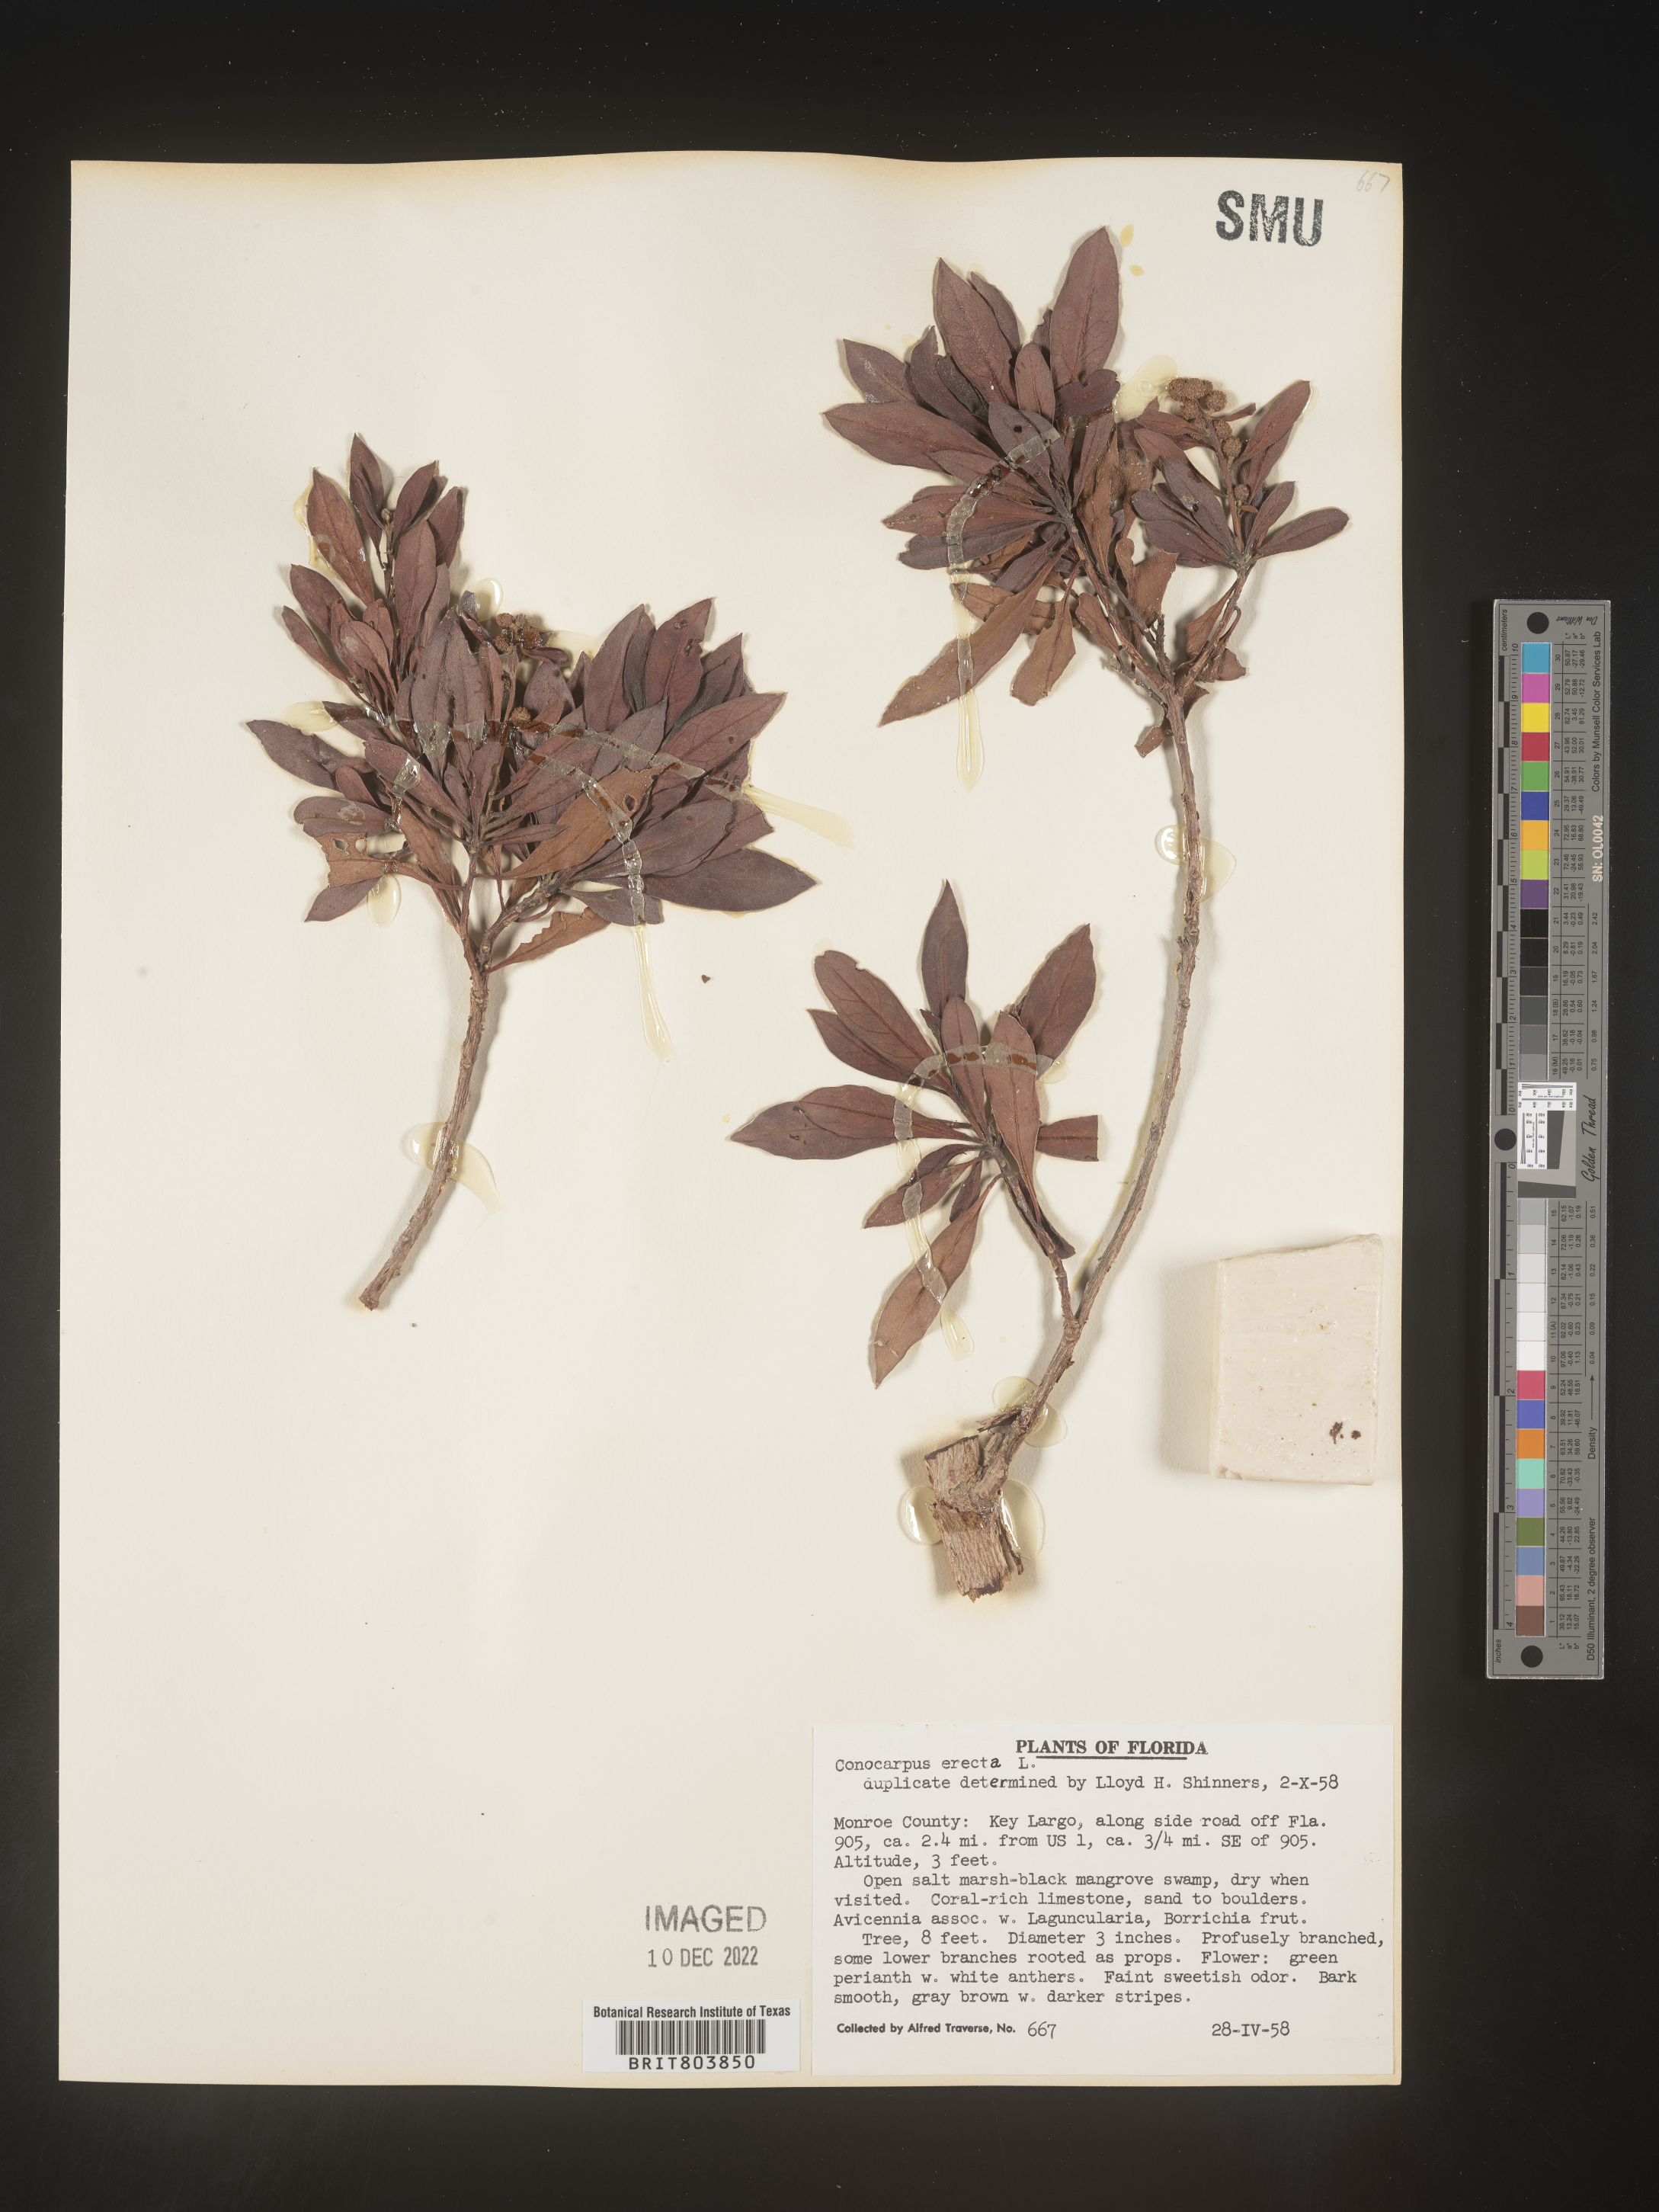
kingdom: Plantae
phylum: Tracheophyta
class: Magnoliopsida
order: Myrtales
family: Combretaceae
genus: Conocarpus
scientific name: Conocarpus erectus
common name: Button mangrove
